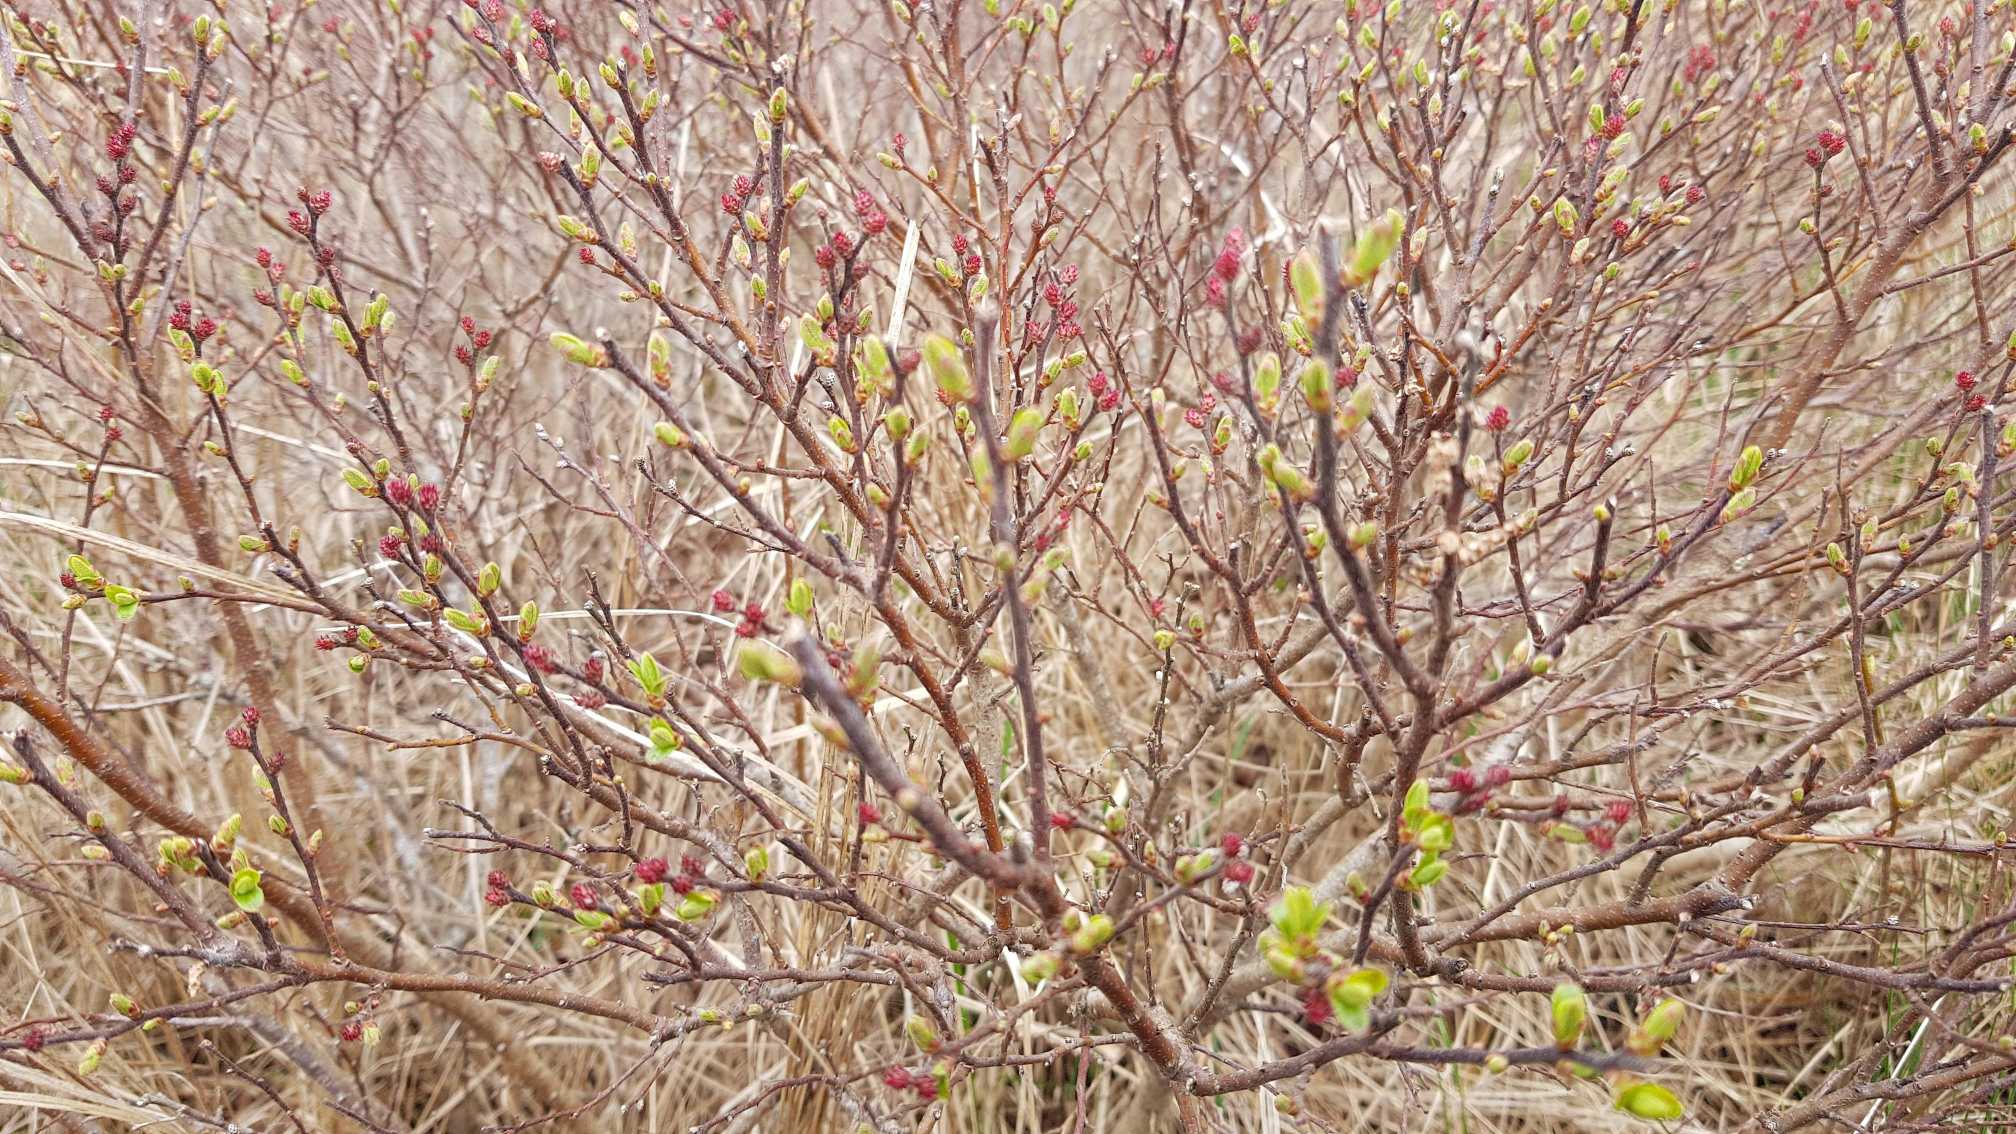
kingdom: Plantae
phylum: Tracheophyta
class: Magnoliopsida
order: Fagales
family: Myricaceae
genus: Myrica
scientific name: Myrica gale
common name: Pors
